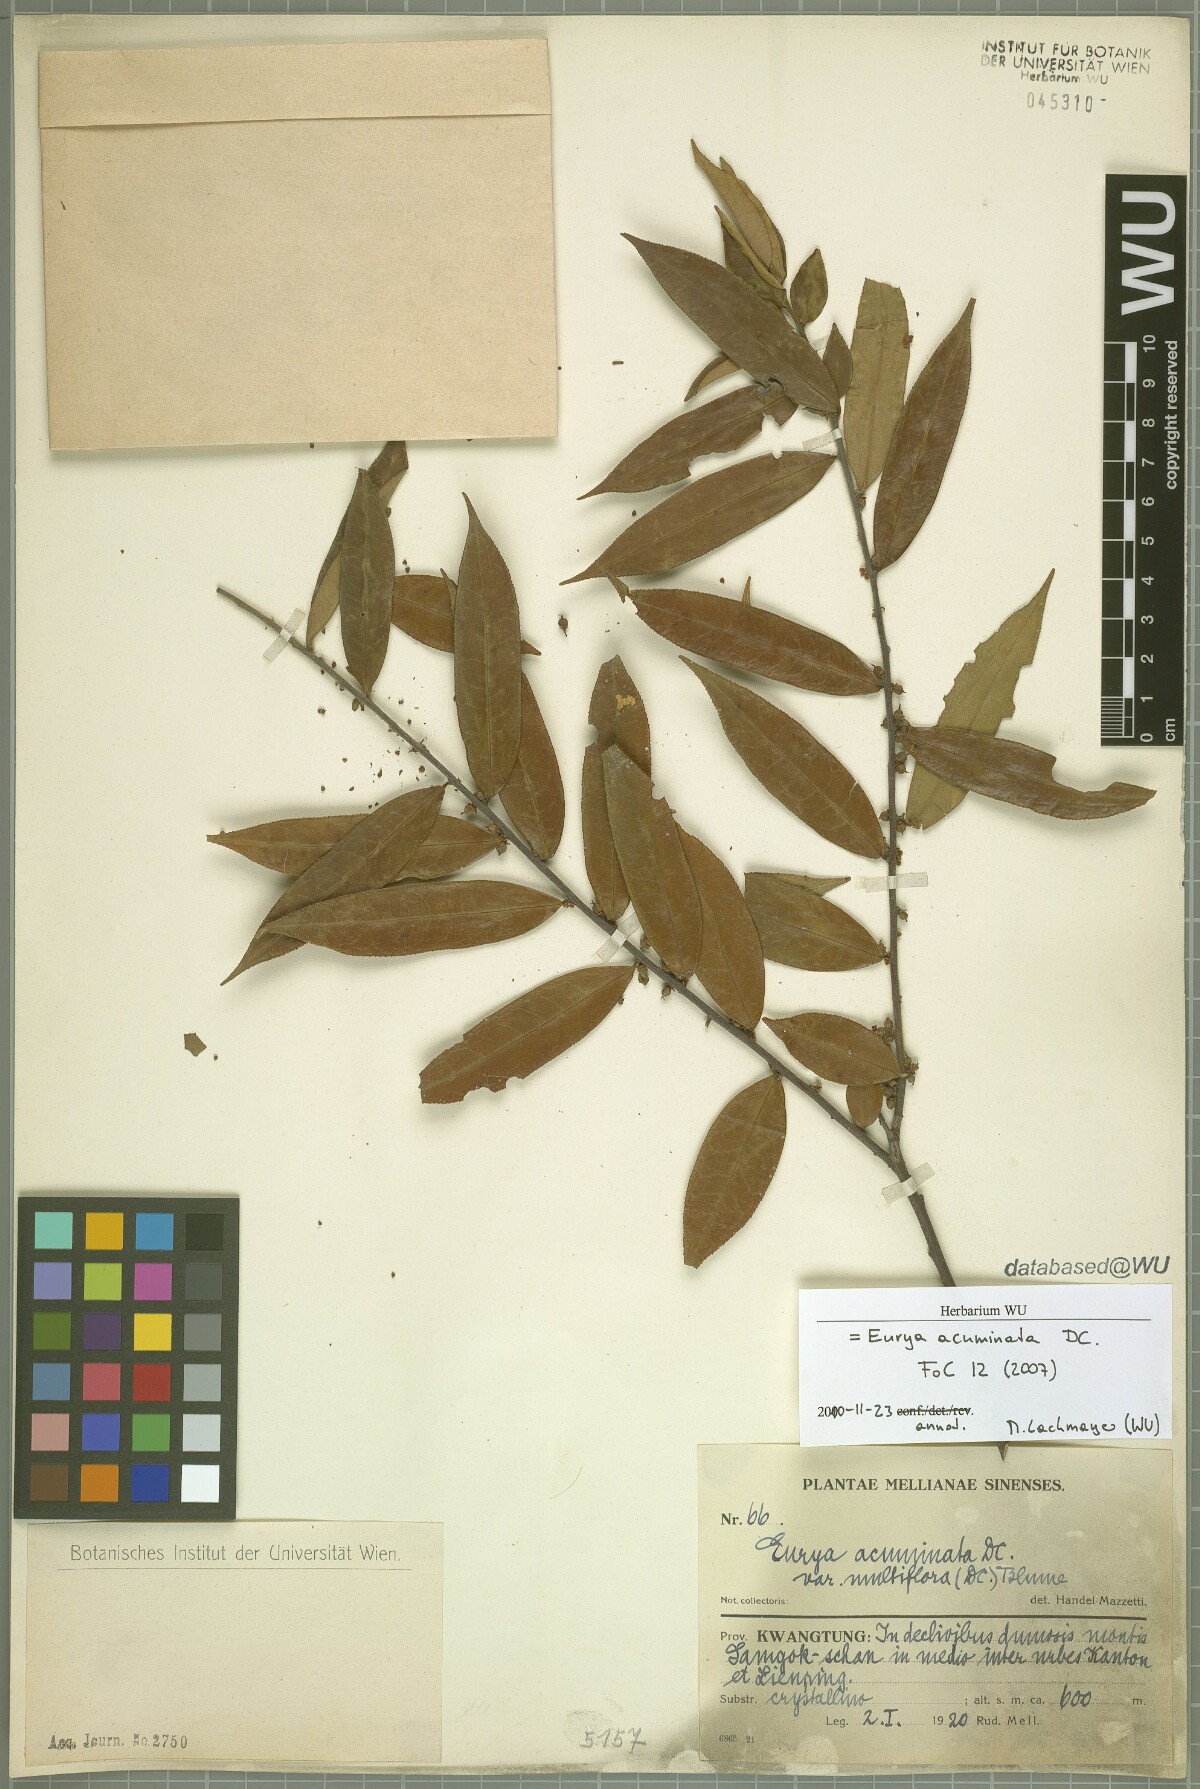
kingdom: Plantae
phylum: Tracheophyta
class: Magnoliopsida
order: Ericales
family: Pentaphylacaceae
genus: Eurya
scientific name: Eurya acuminata
